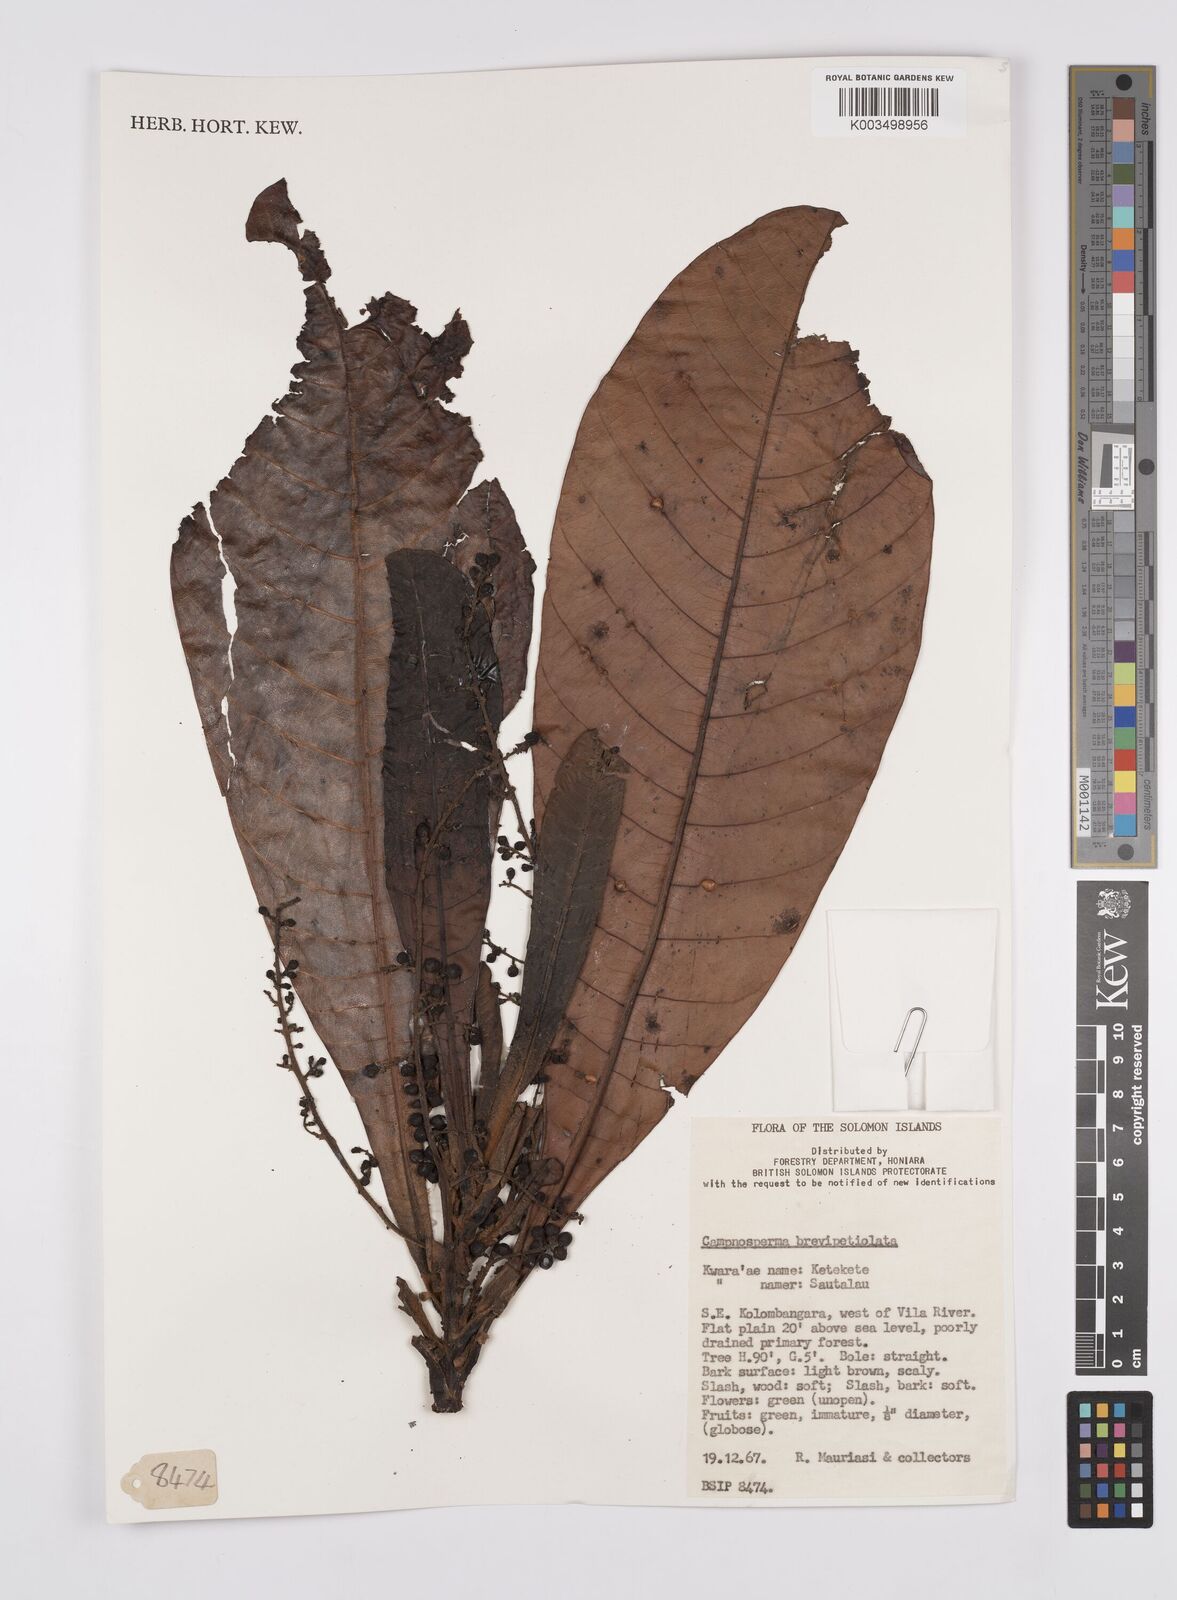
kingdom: Plantae
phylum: Tracheophyta
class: Magnoliopsida
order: Sapindales
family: Anacardiaceae
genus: Campnosperma
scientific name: Campnosperma brevipetiolatum
